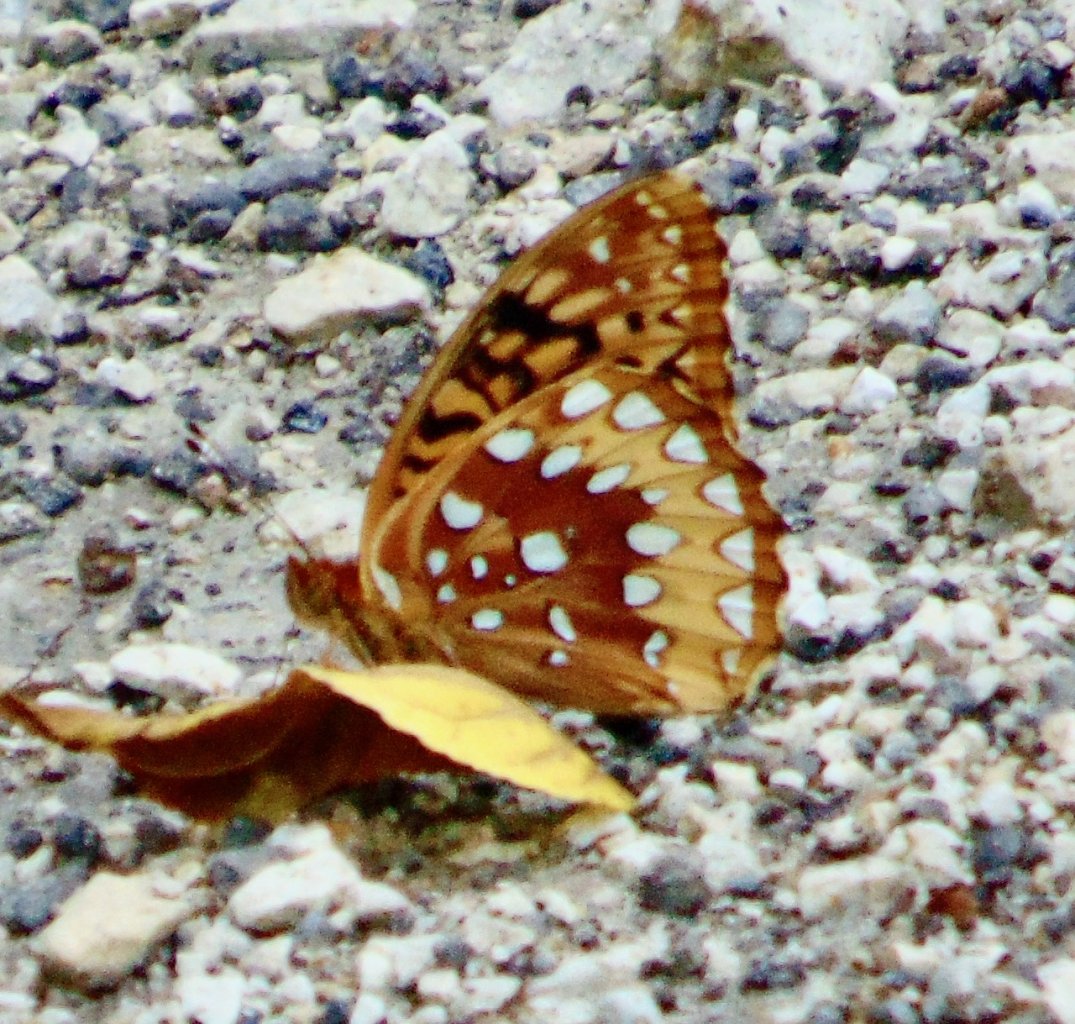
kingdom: Animalia
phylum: Arthropoda
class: Insecta
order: Lepidoptera
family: Nymphalidae
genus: Speyeria
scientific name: Speyeria cybele
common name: Great Spangled Fritillary
